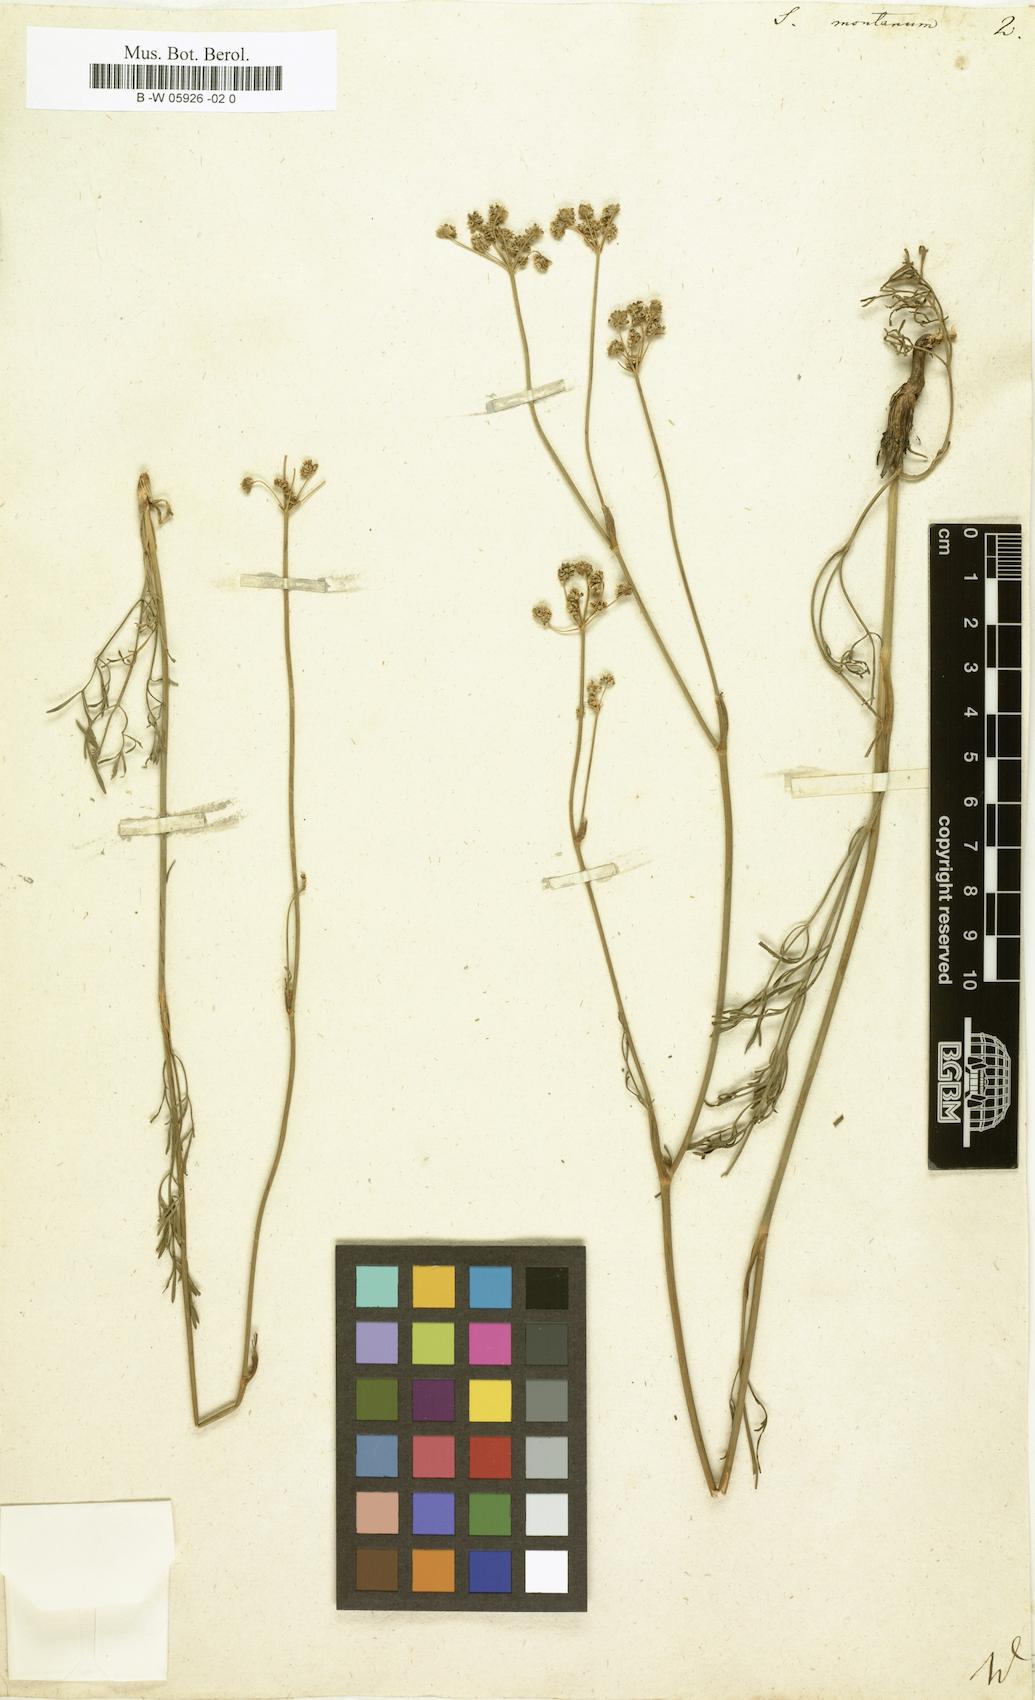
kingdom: Plantae
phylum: Tracheophyta
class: Magnoliopsida
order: Apiales
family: Apiaceae
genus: Seseli
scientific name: Seseli montanum
